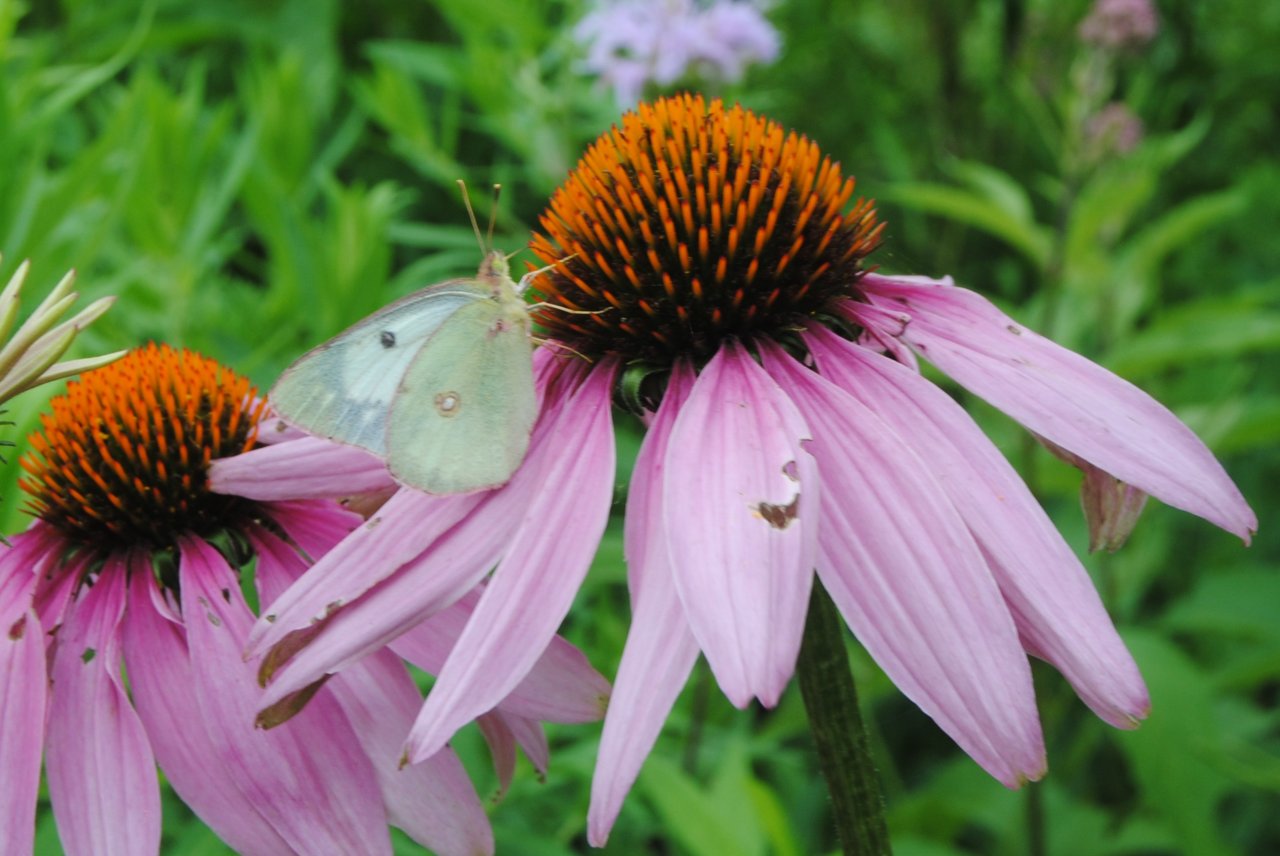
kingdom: Animalia
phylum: Arthropoda
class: Insecta
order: Lepidoptera
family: Pieridae
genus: Colias
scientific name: Colias philodice
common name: Clouded Sulphur
